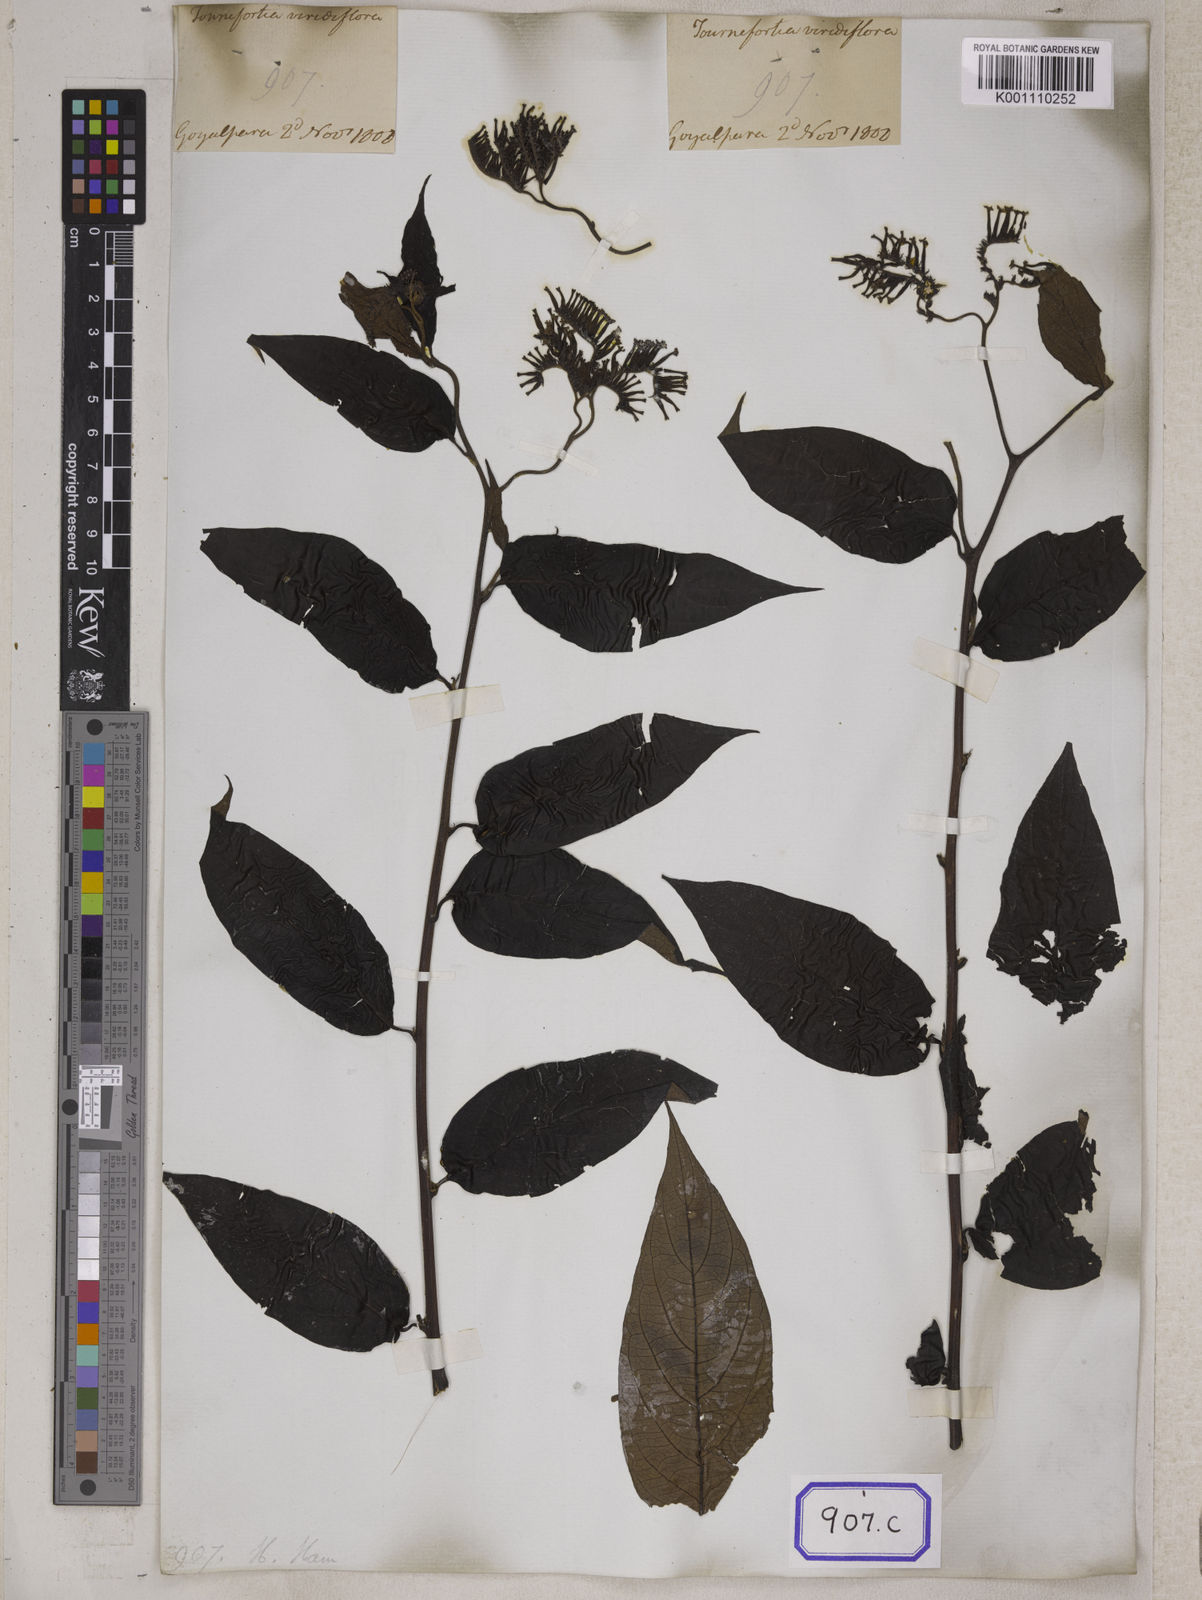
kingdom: Plantae
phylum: Tracheophyta
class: Magnoliopsida
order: Boraginales
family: Heliotropiaceae
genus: Tournefortia
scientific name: Tournefortia montana
